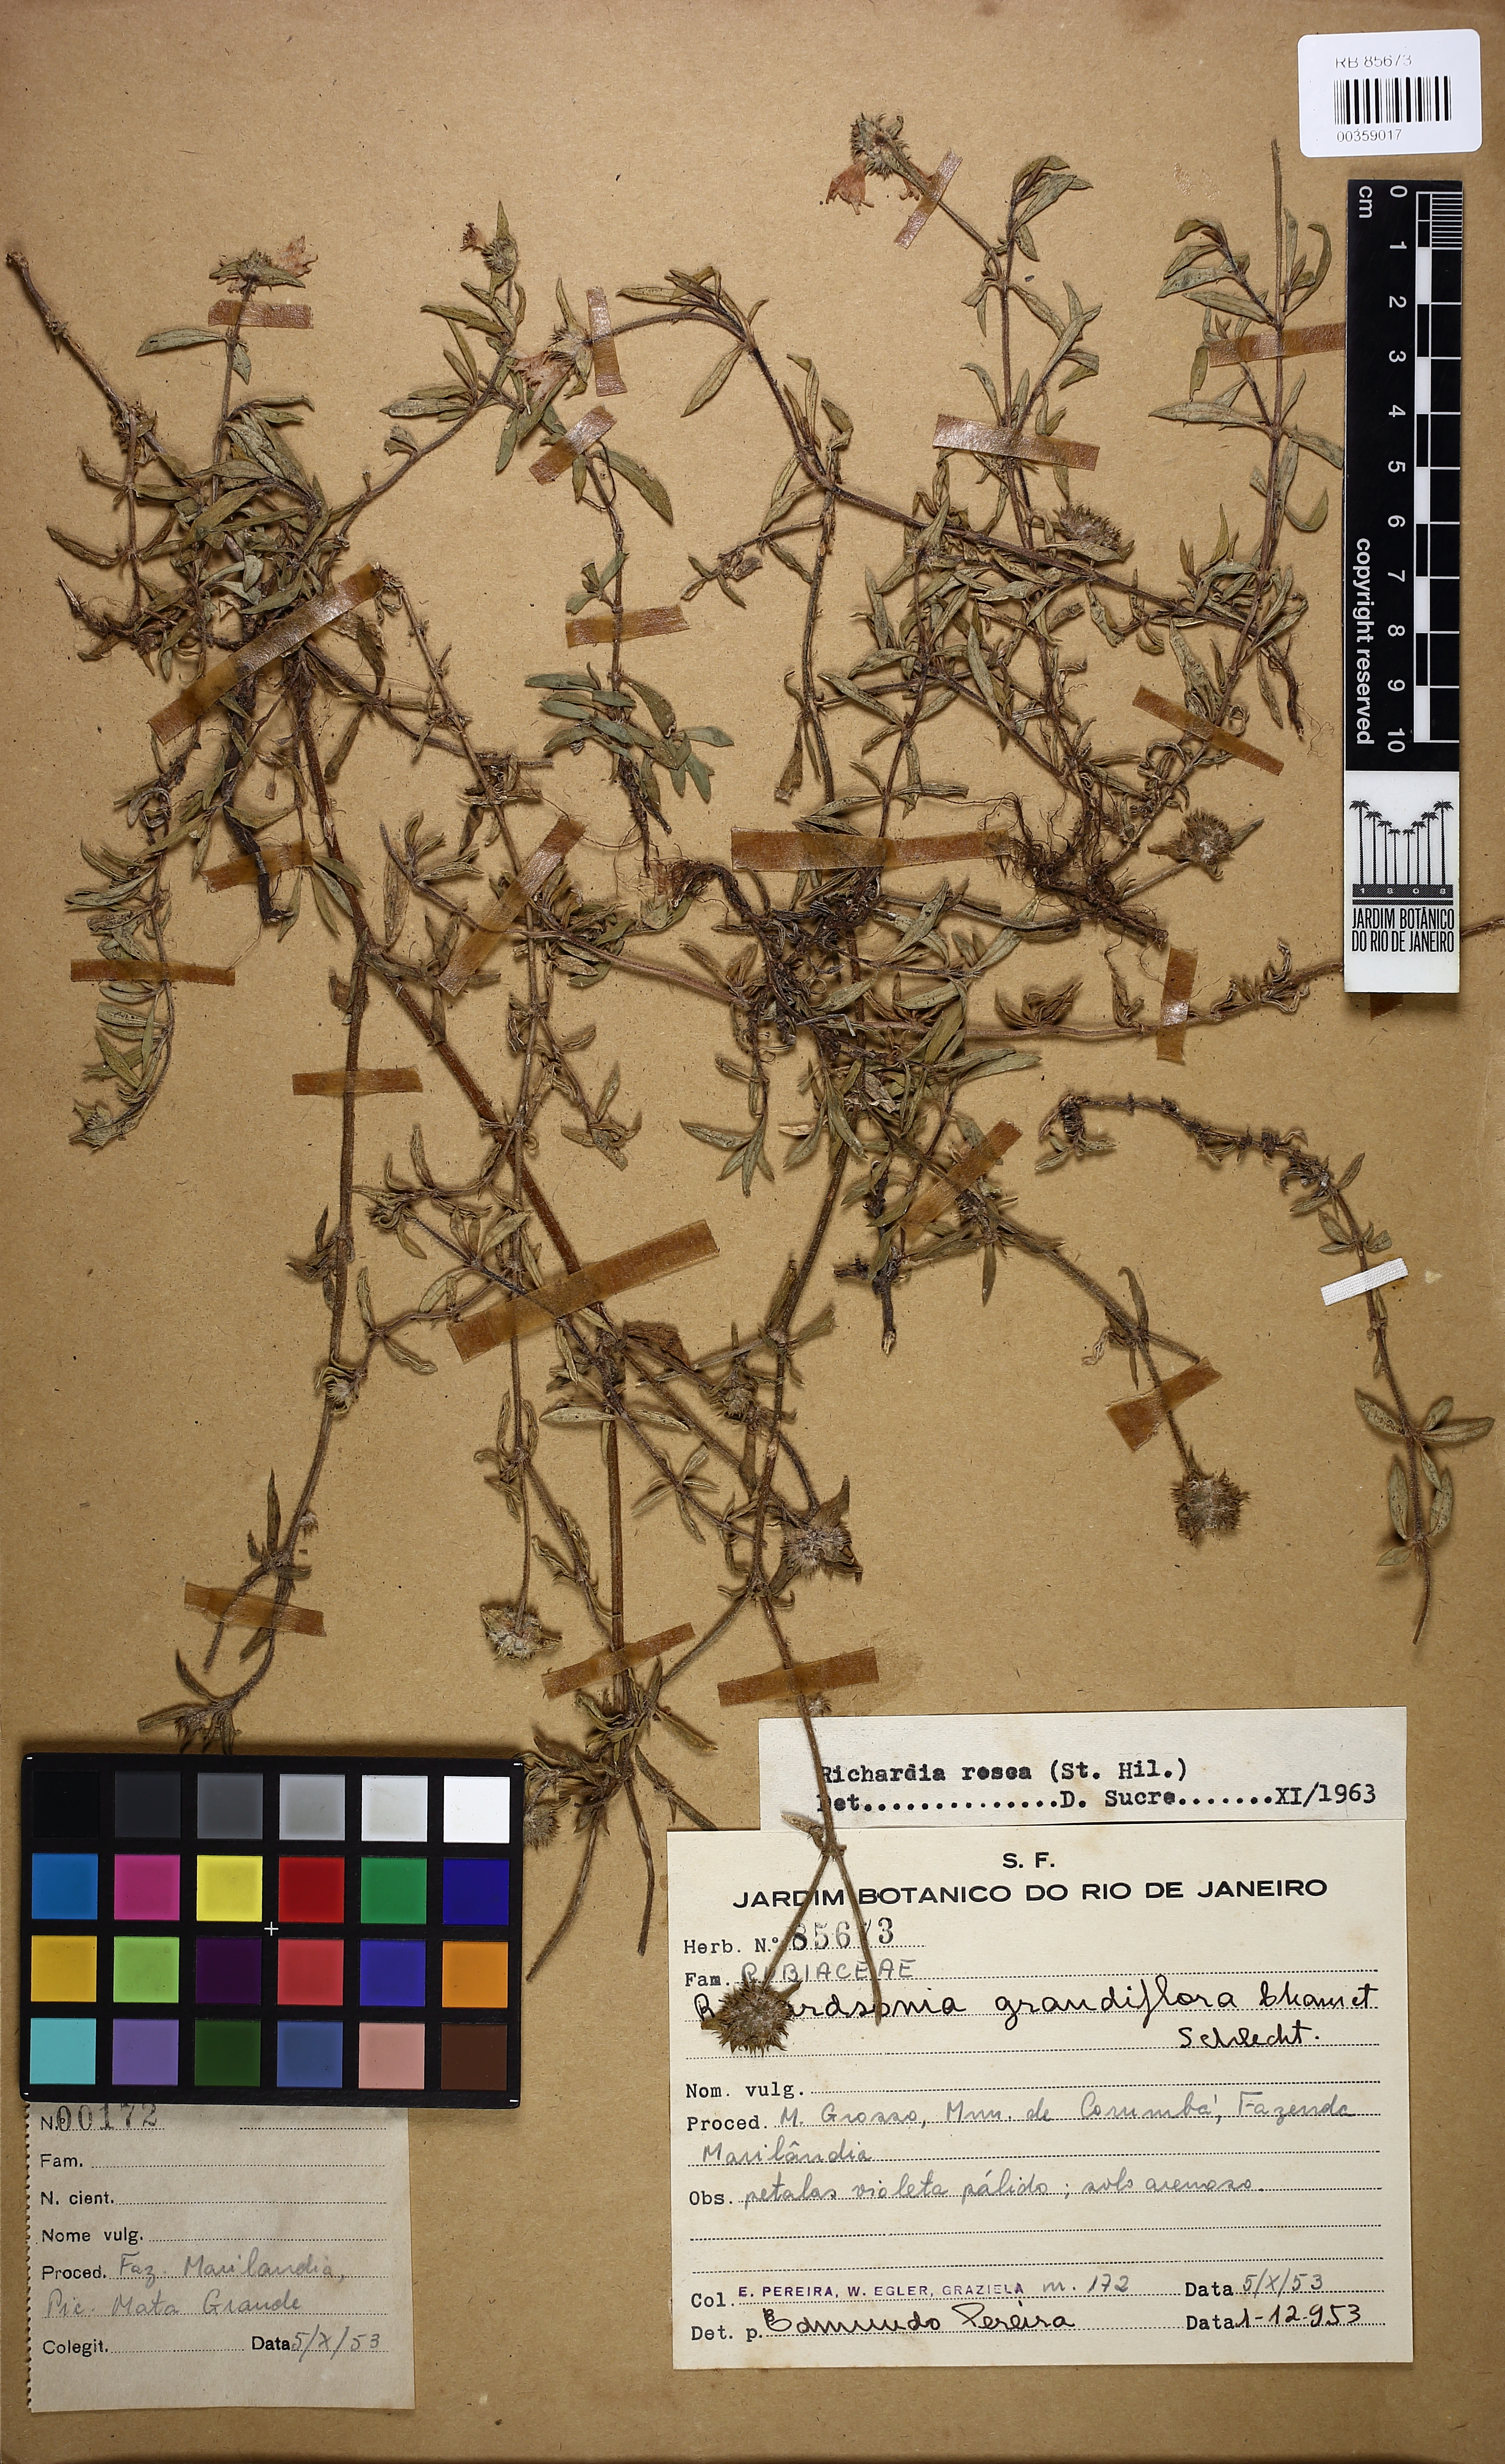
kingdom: Plantae
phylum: Tracheophyta
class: Magnoliopsida
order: Gentianales
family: Rubiaceae
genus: Richardia
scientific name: Richardia brasiliensis
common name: Tropical mexican clover
